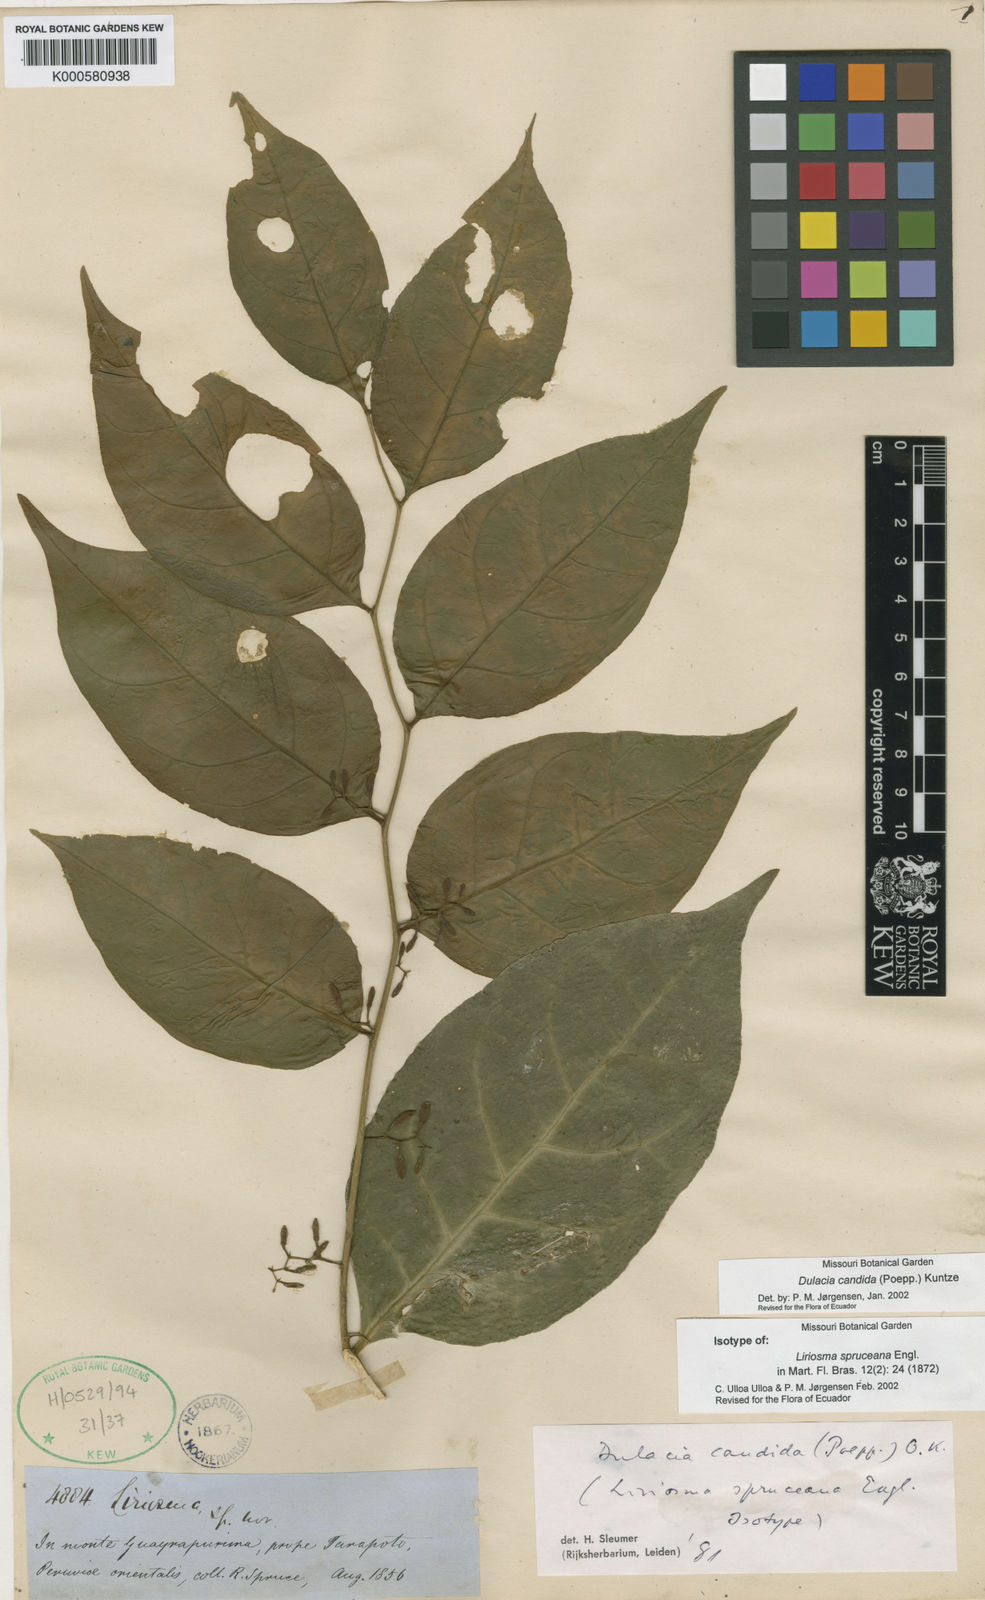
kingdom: Plantae
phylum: Tracheophyta
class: Magnoliopsida
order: Santalales
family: Olacaceae
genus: Dulacia
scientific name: Dulacia candida
